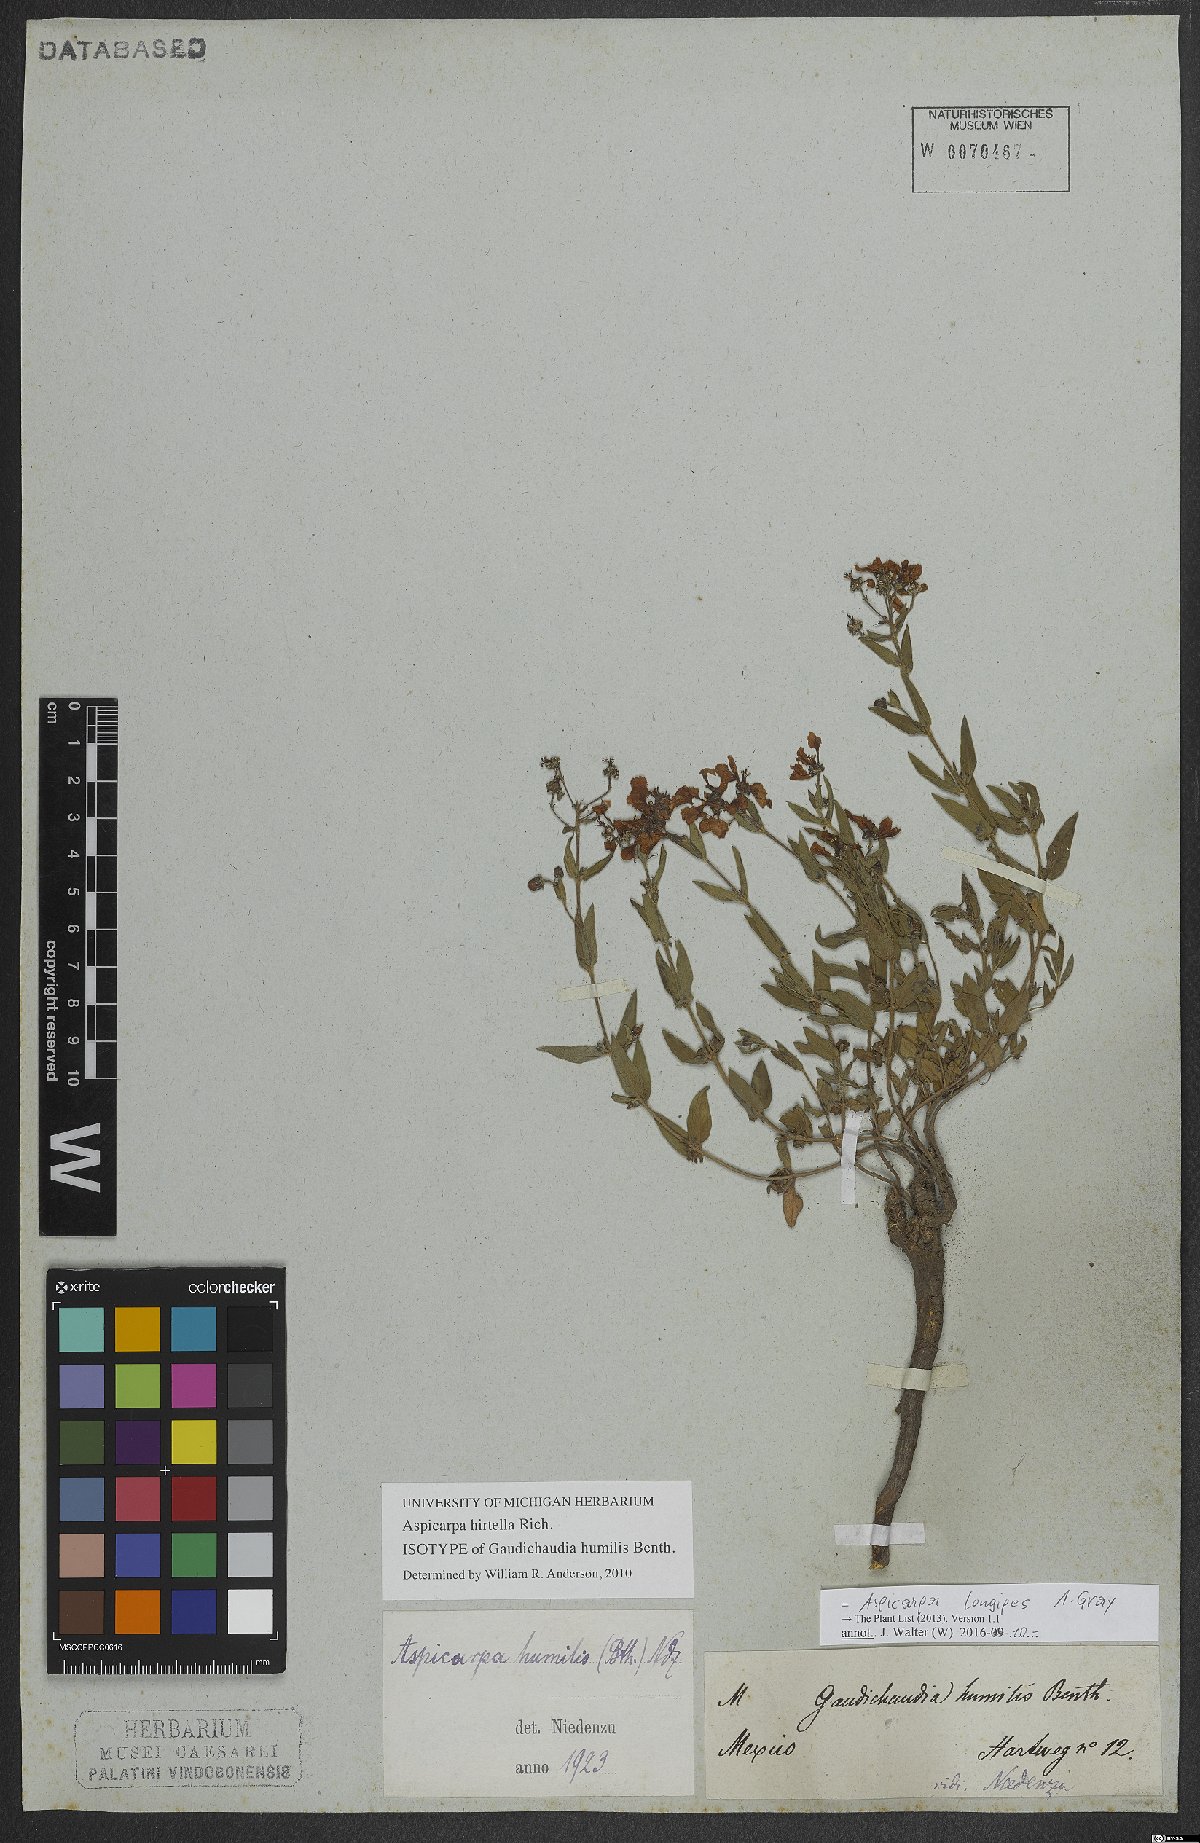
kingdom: Plantae
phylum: Tracheophyta
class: Magnoliopsida
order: Malpighiales
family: Malpighiaceae
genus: Aspicarpa
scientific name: Aspicarpa humilis
